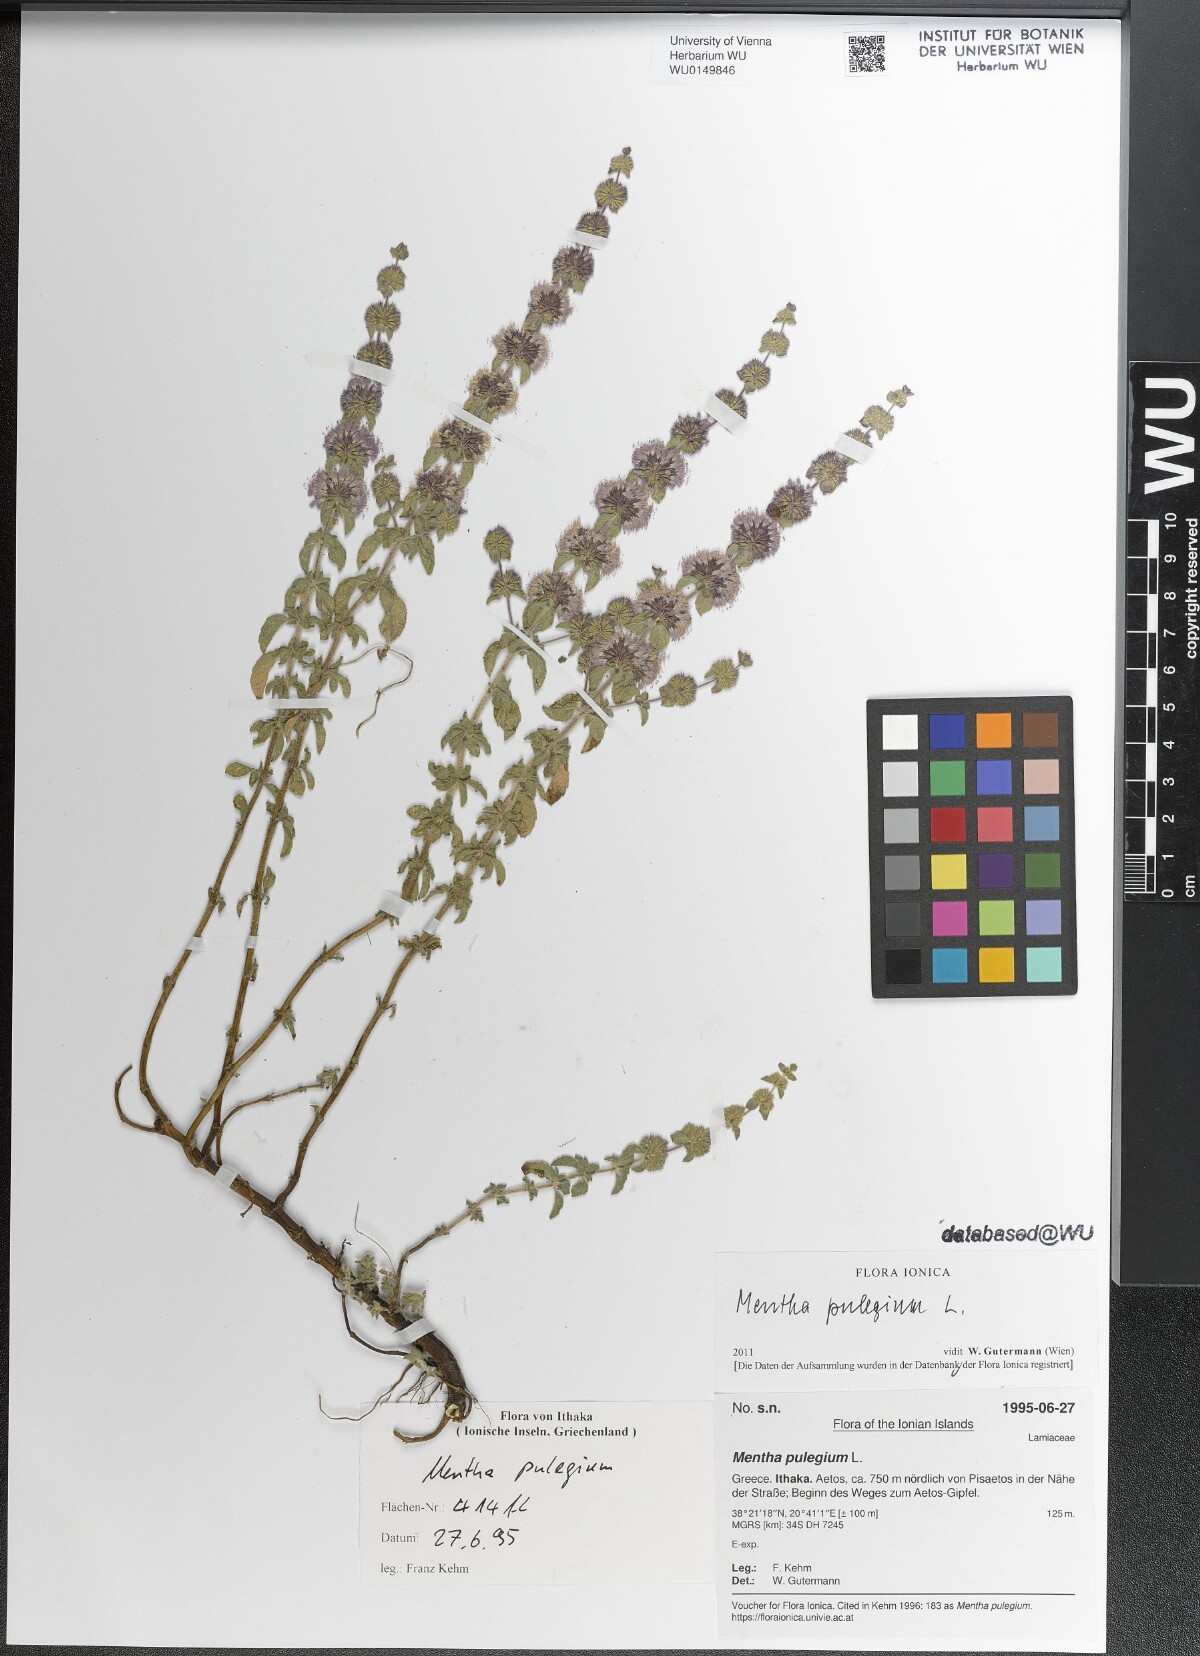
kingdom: Plantae
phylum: Tracheophyta
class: Magnoliopsida
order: Lamiales
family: Lamiaceae
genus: Mentha
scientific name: Mentha pulegium
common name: Pennyroyal
